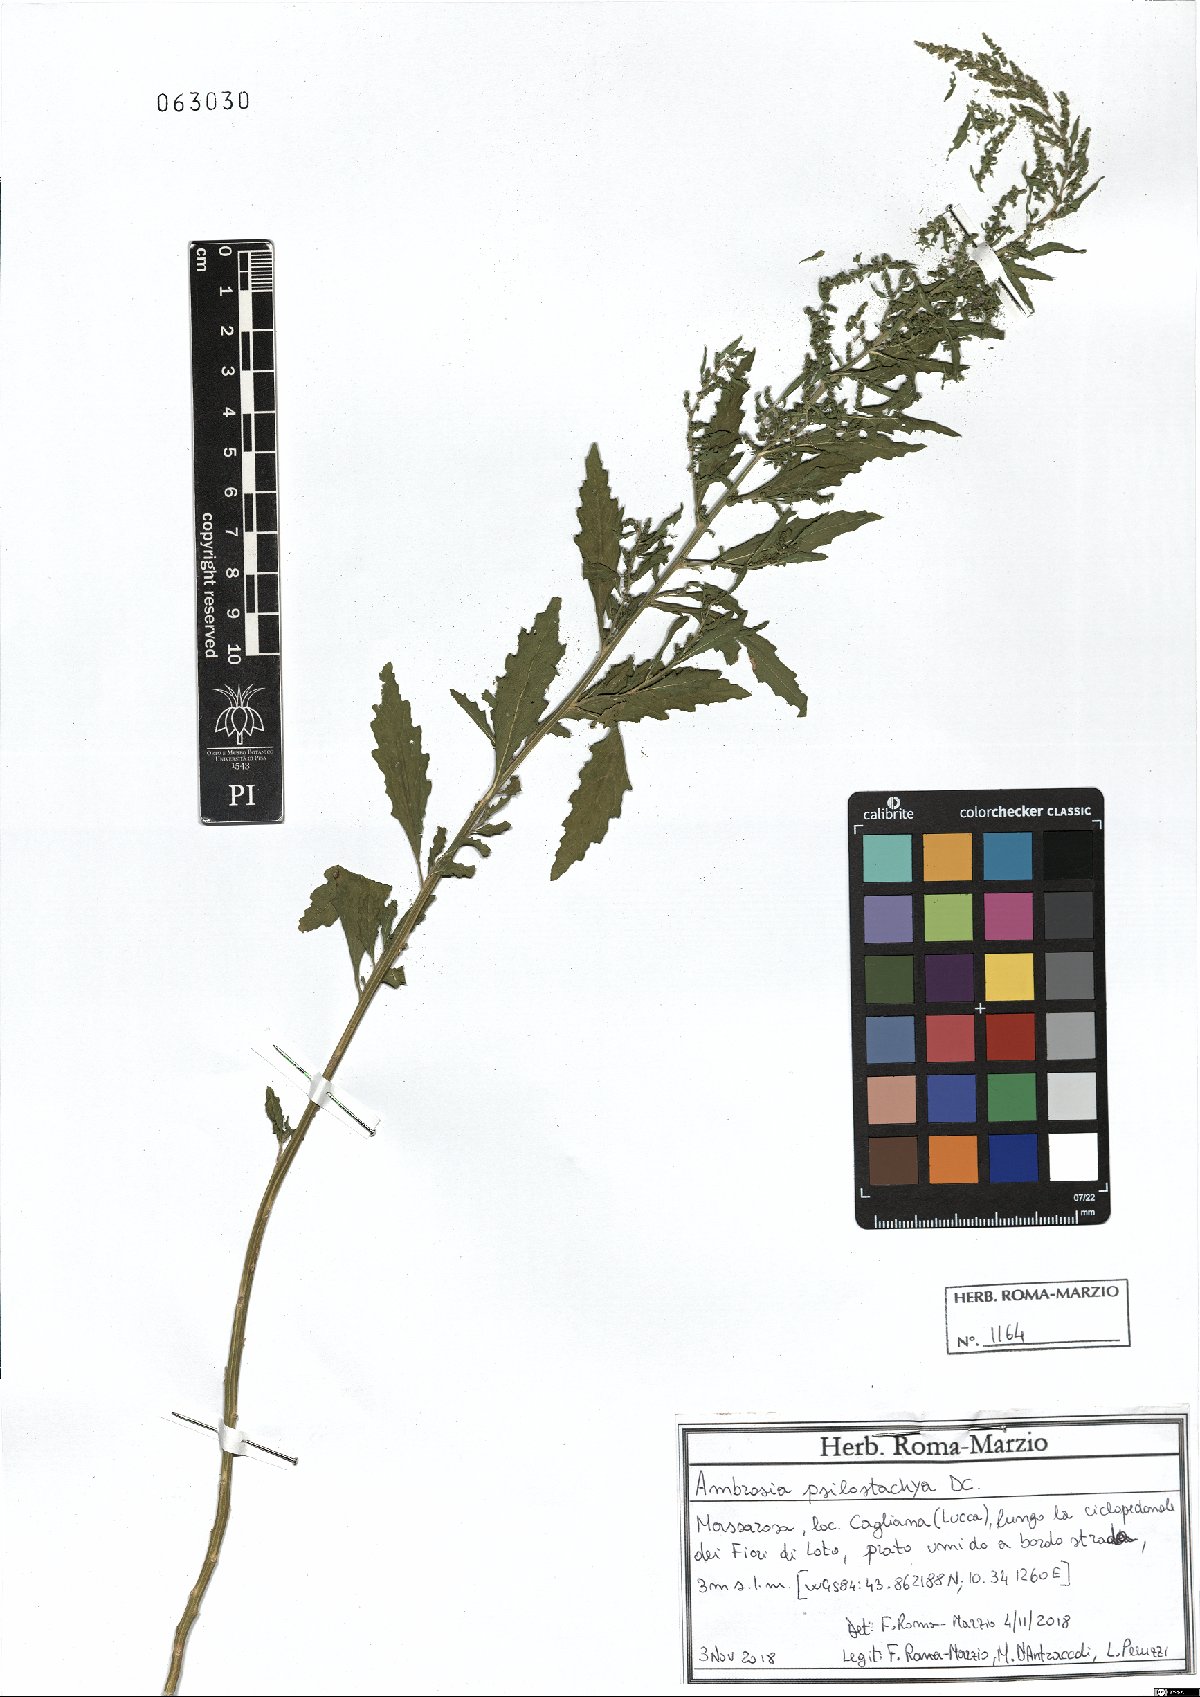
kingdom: Plantae
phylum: Tracheophyta
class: Magnoliopsida
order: Asterales
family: Asteraceae
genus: Ambrosia
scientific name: Ambrosia psilostachya
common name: Perennial ragweed
